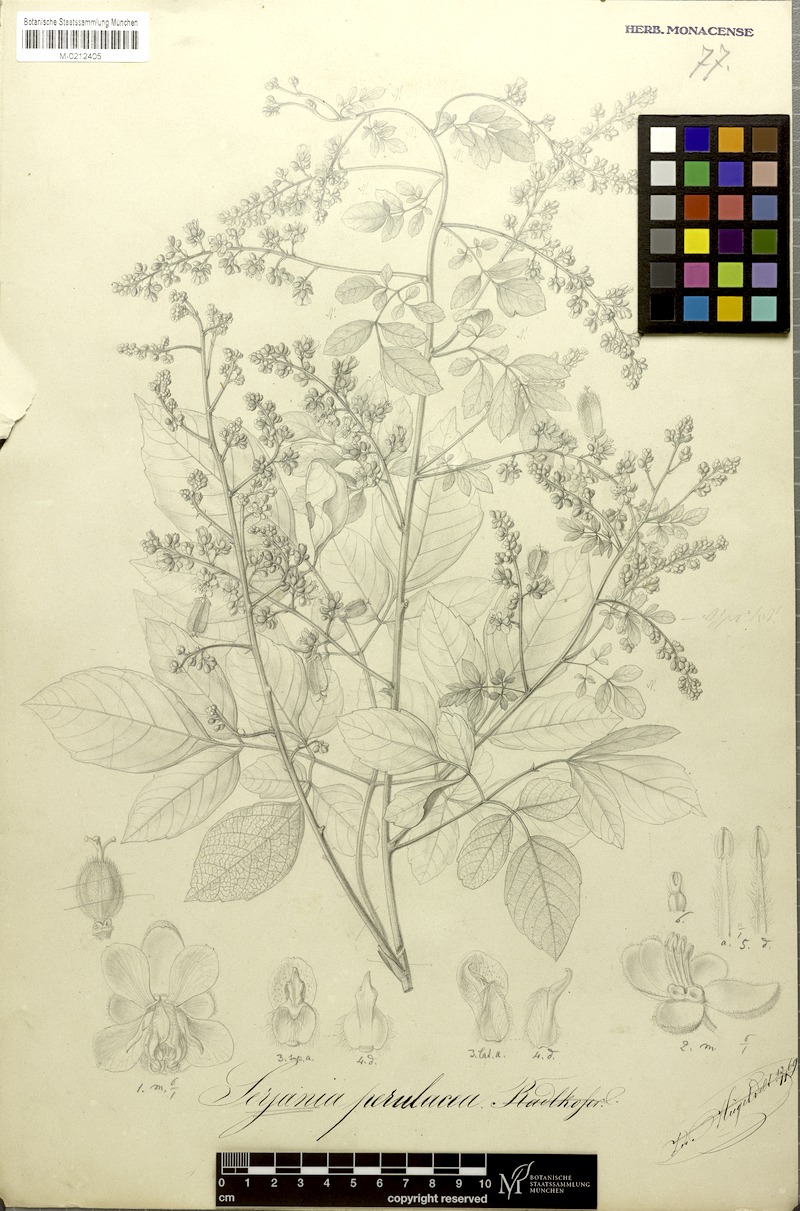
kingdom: Plantae
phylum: Tracheophyta
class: Magnoliopsida
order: Sapindales
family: Sapindaceae
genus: Serjania
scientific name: Serjania perulacea
